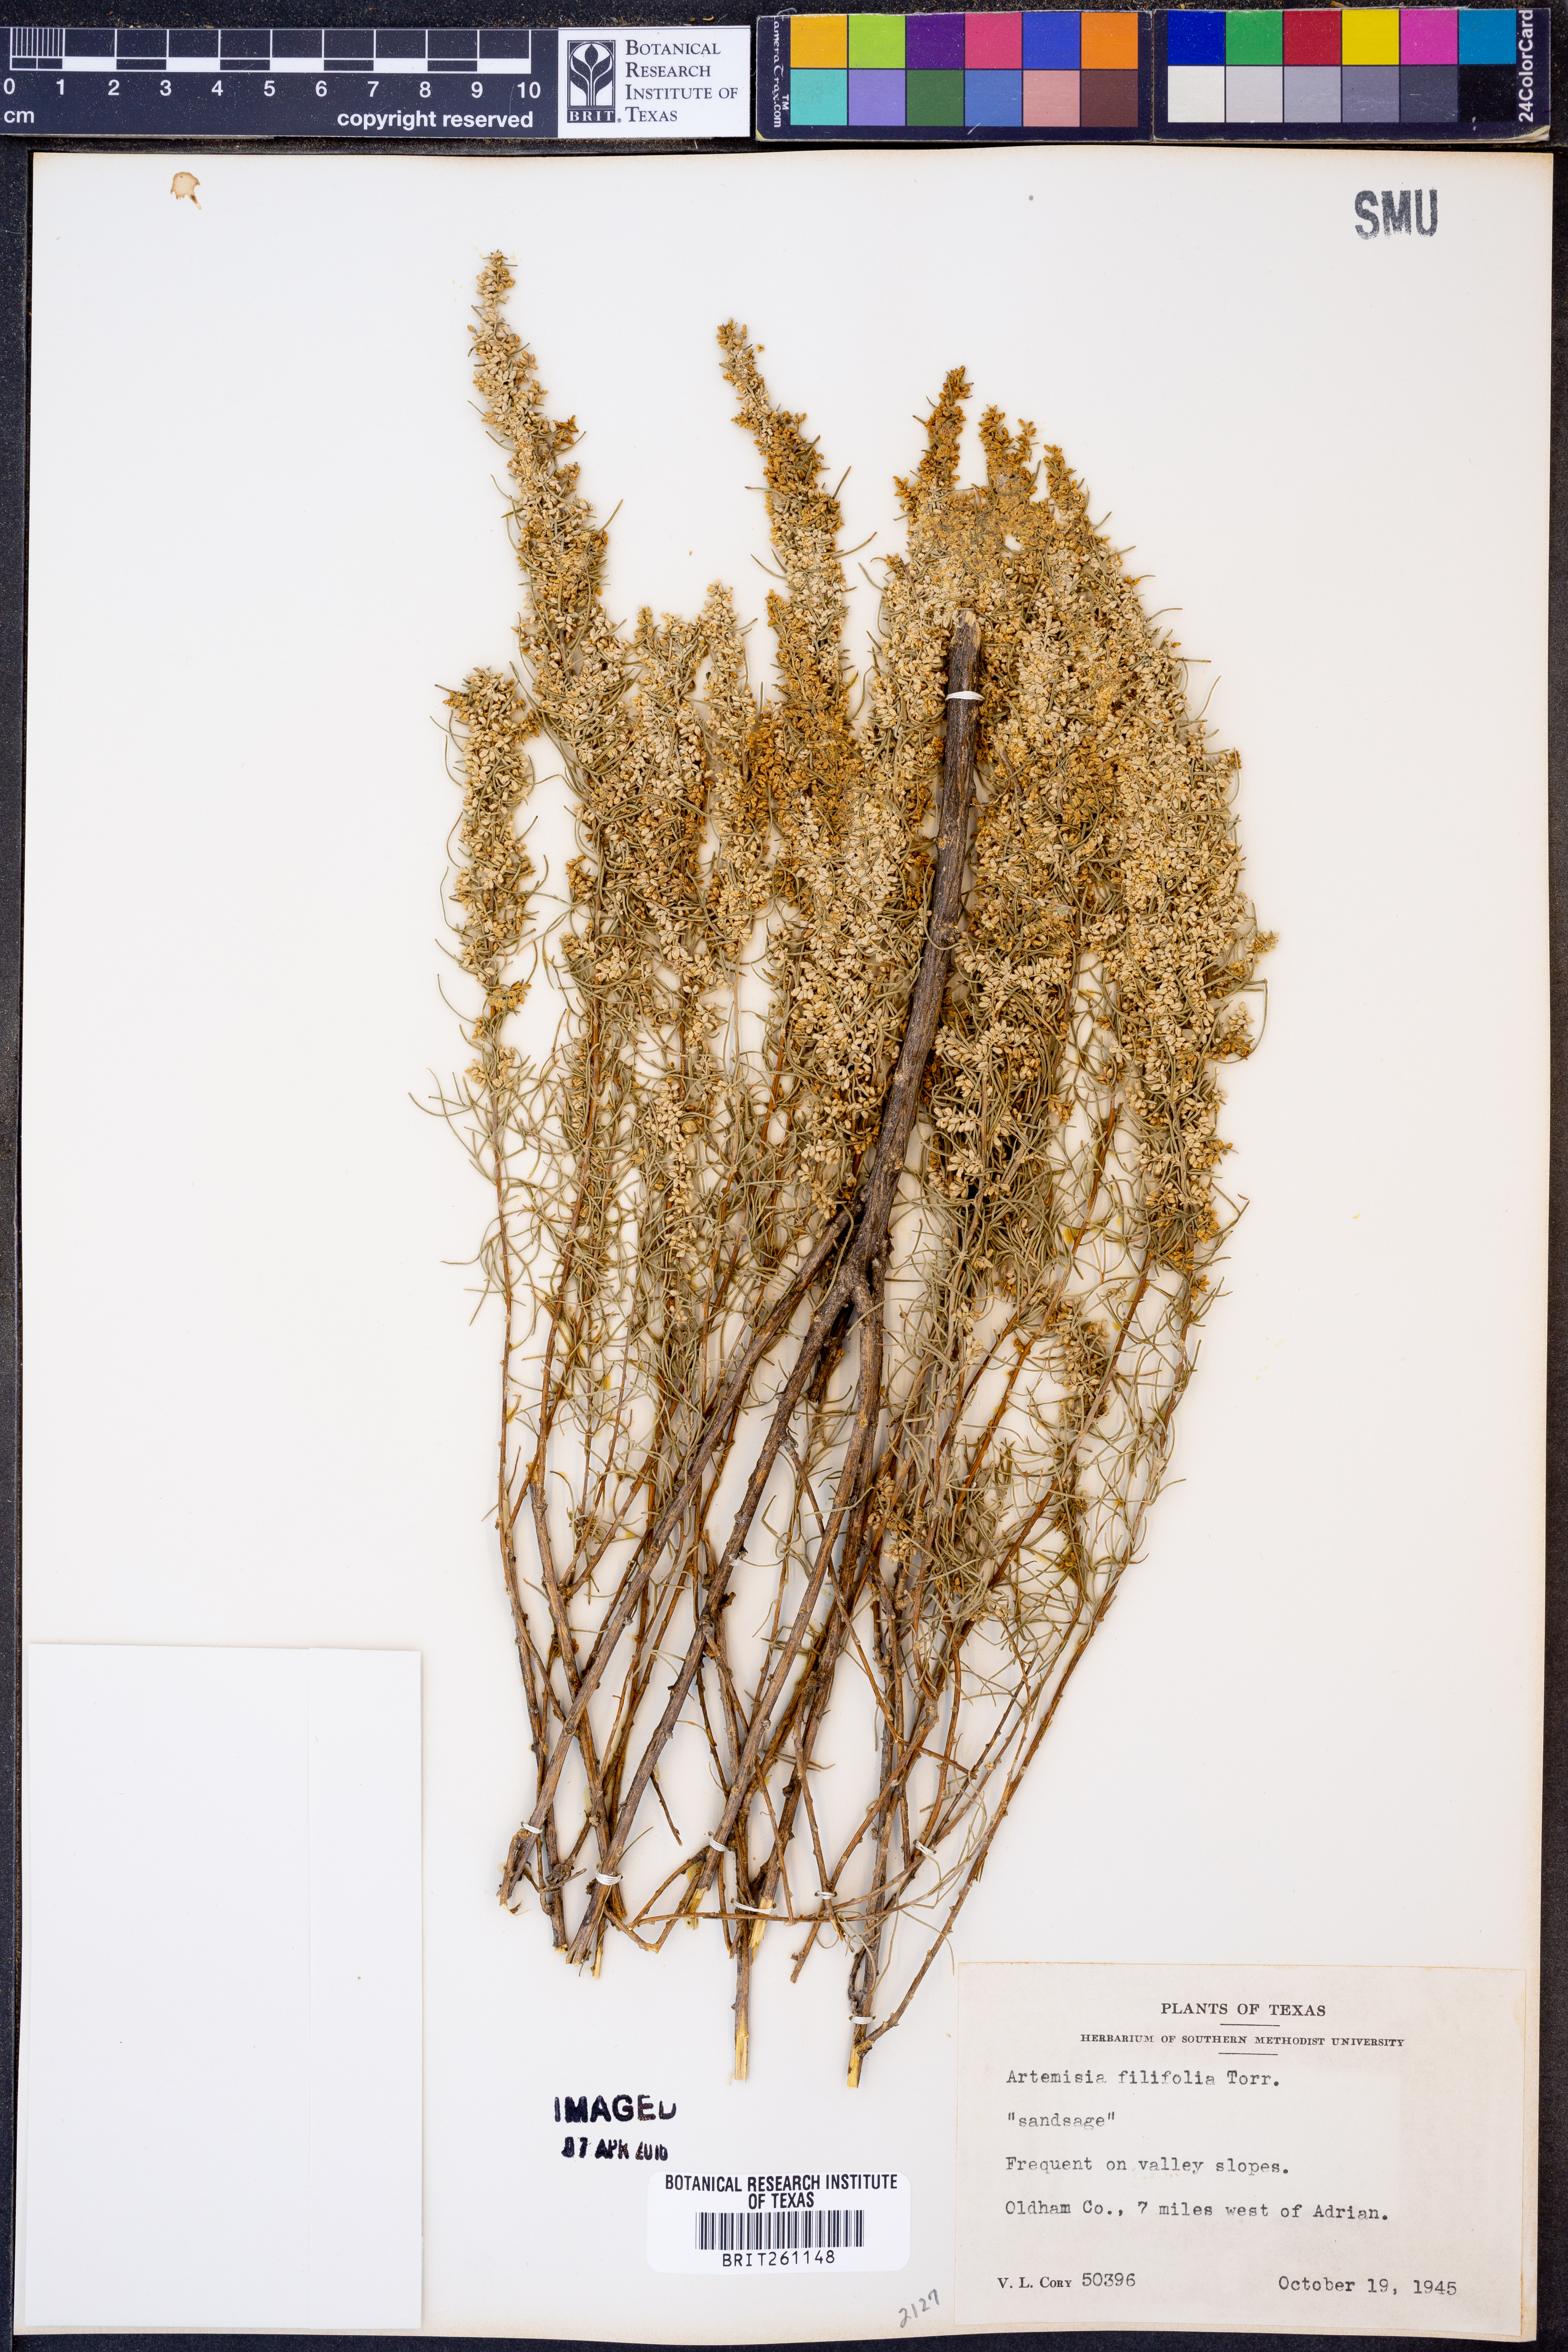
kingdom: Plantae
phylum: Tracheophyta
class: Magnoliopsida
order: Asterales
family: Asteraceae
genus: Artemisia
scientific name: Artemisia filifolia
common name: Sand-sage
